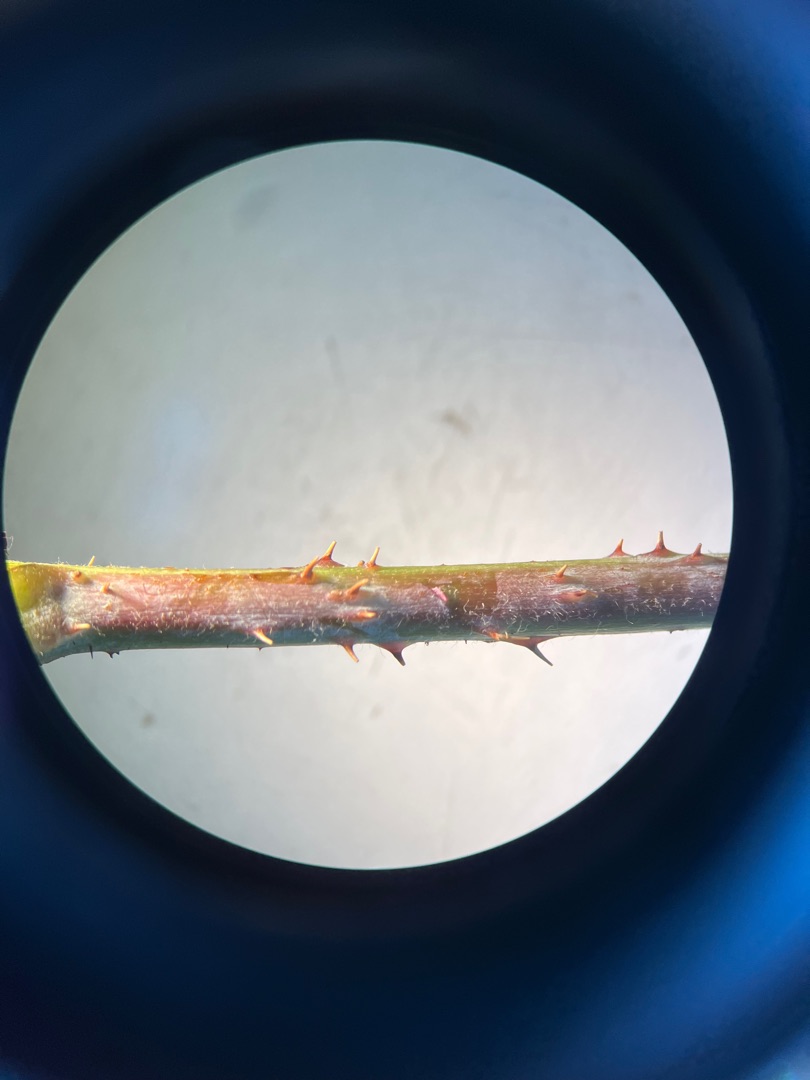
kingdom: Plantae
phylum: Tracheophyta
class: Magnoliopsida
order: Rosales
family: Rosaceae
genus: Rubus
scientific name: Rubus caesius
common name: Korbær
